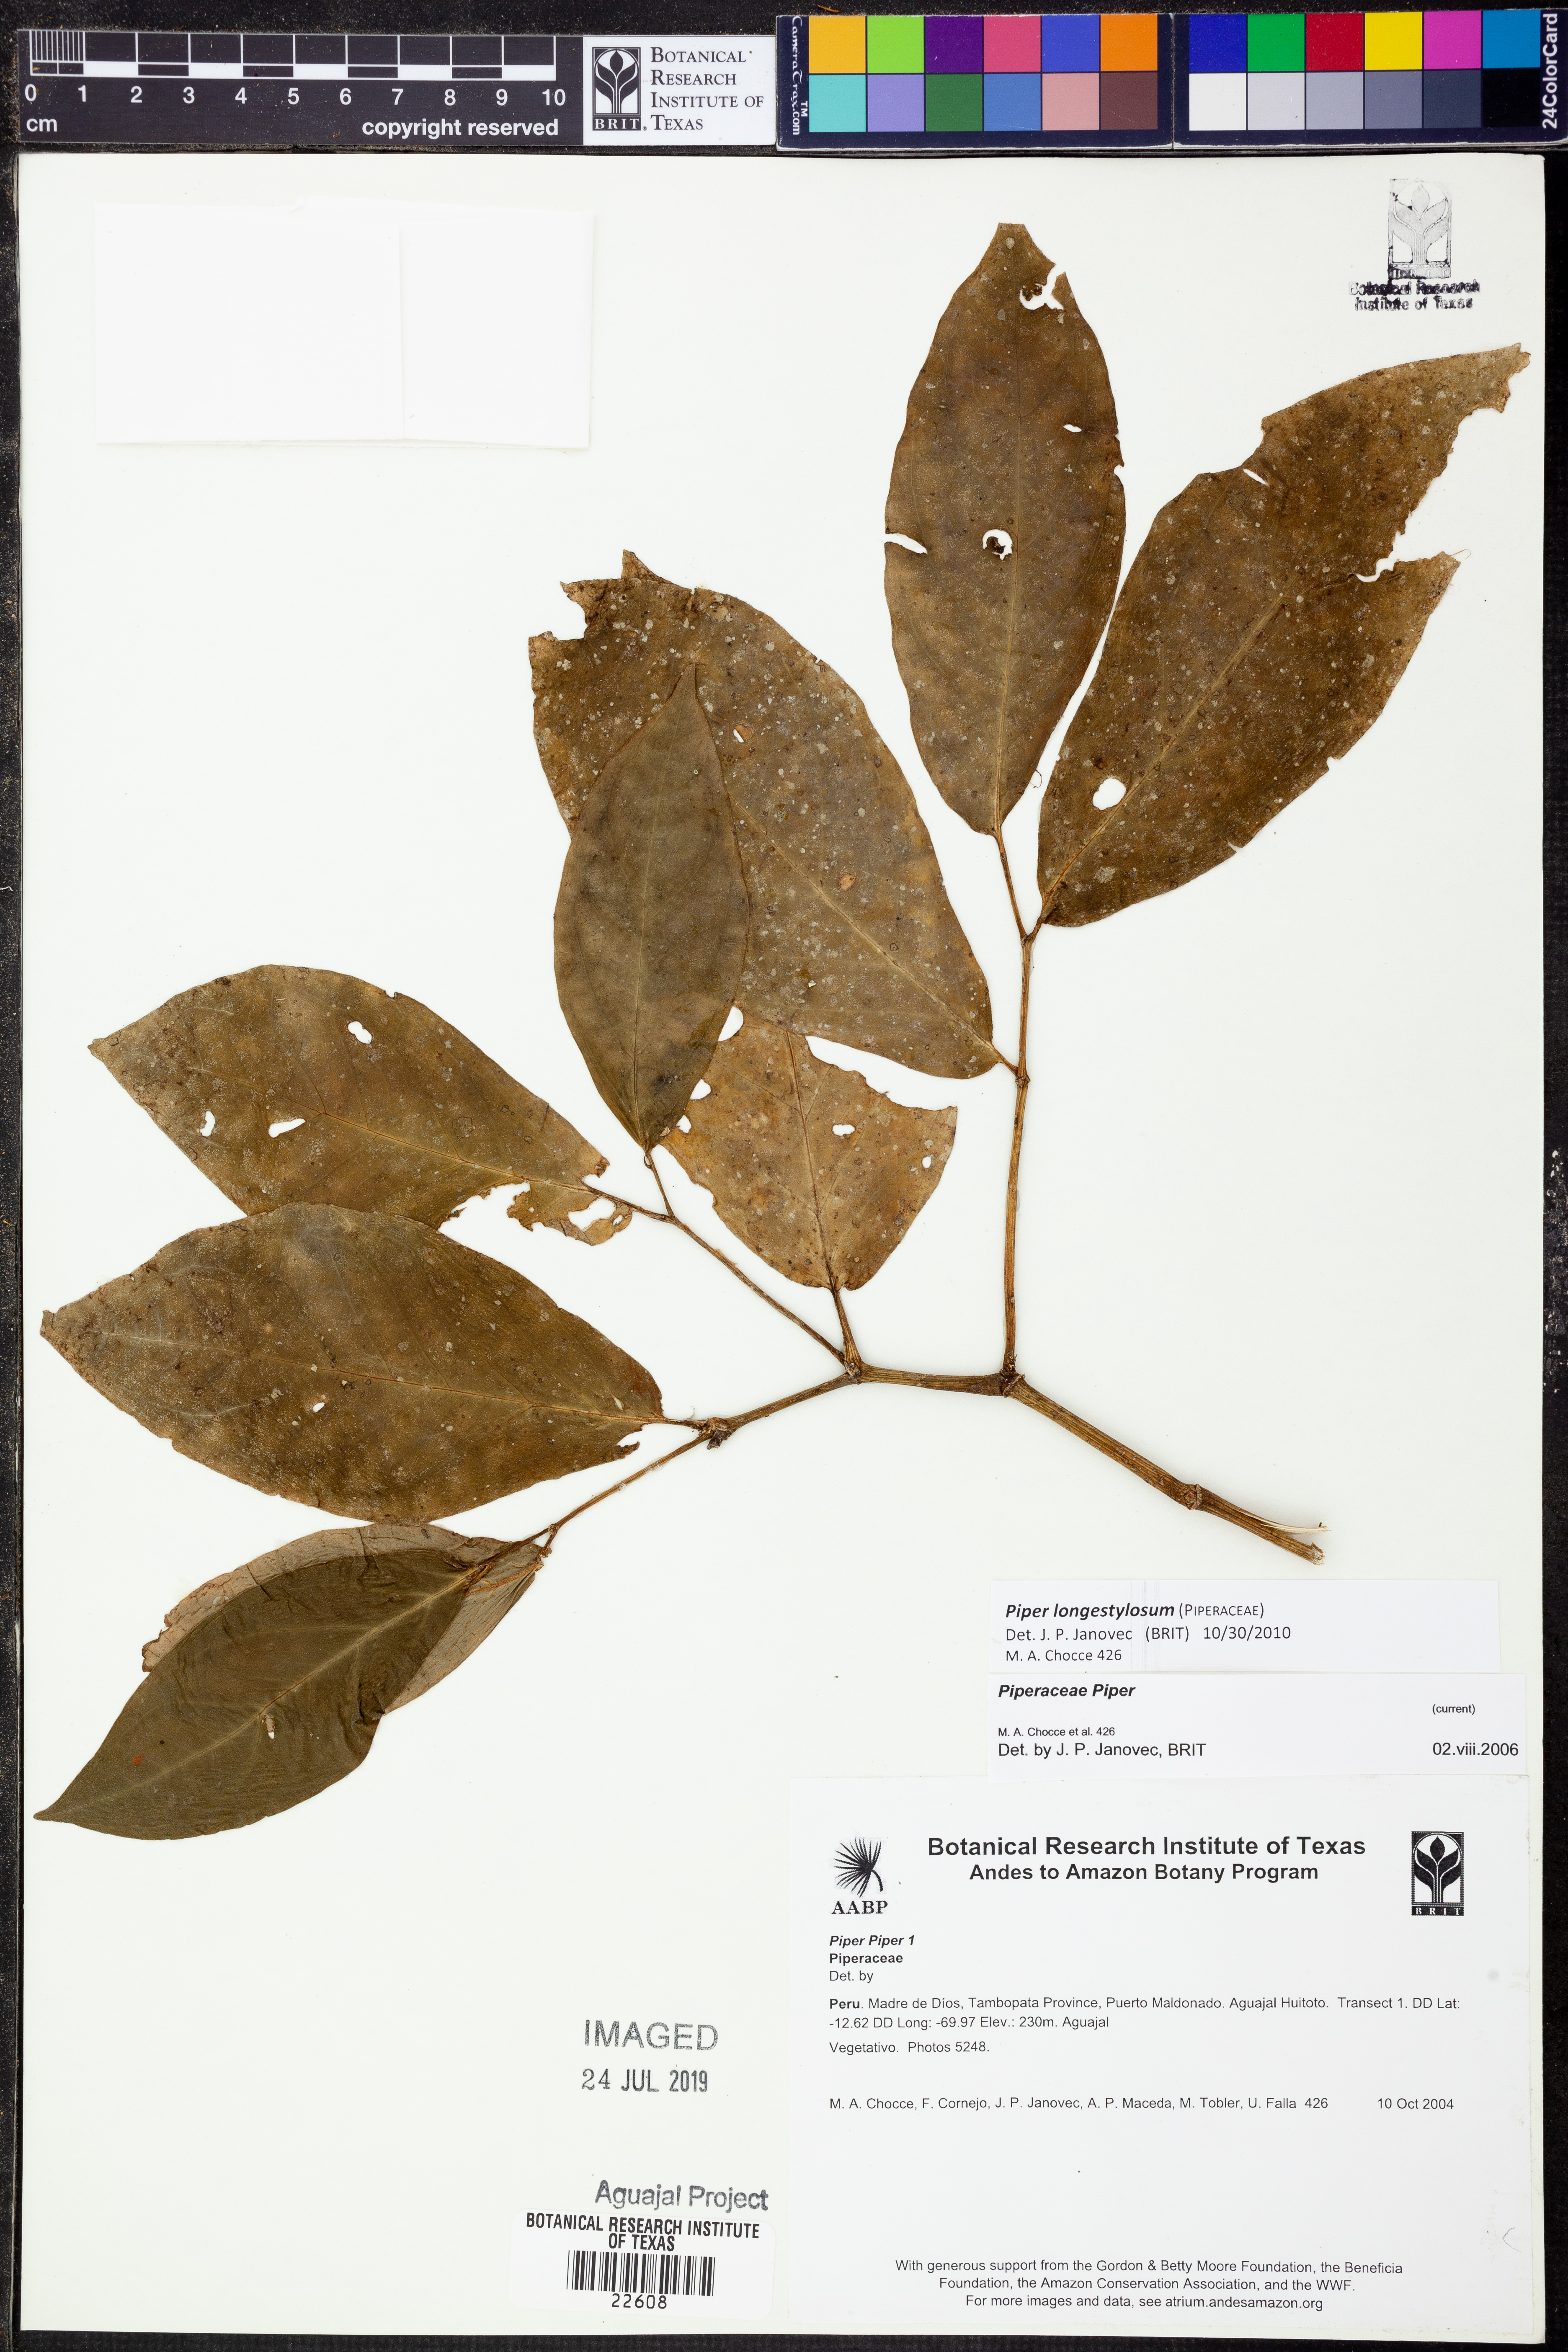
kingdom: Plantae
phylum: Tracheophyta
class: Magnoliopsida
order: Piperales
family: Piperaceae
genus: Piper
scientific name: Piper longestylosum
